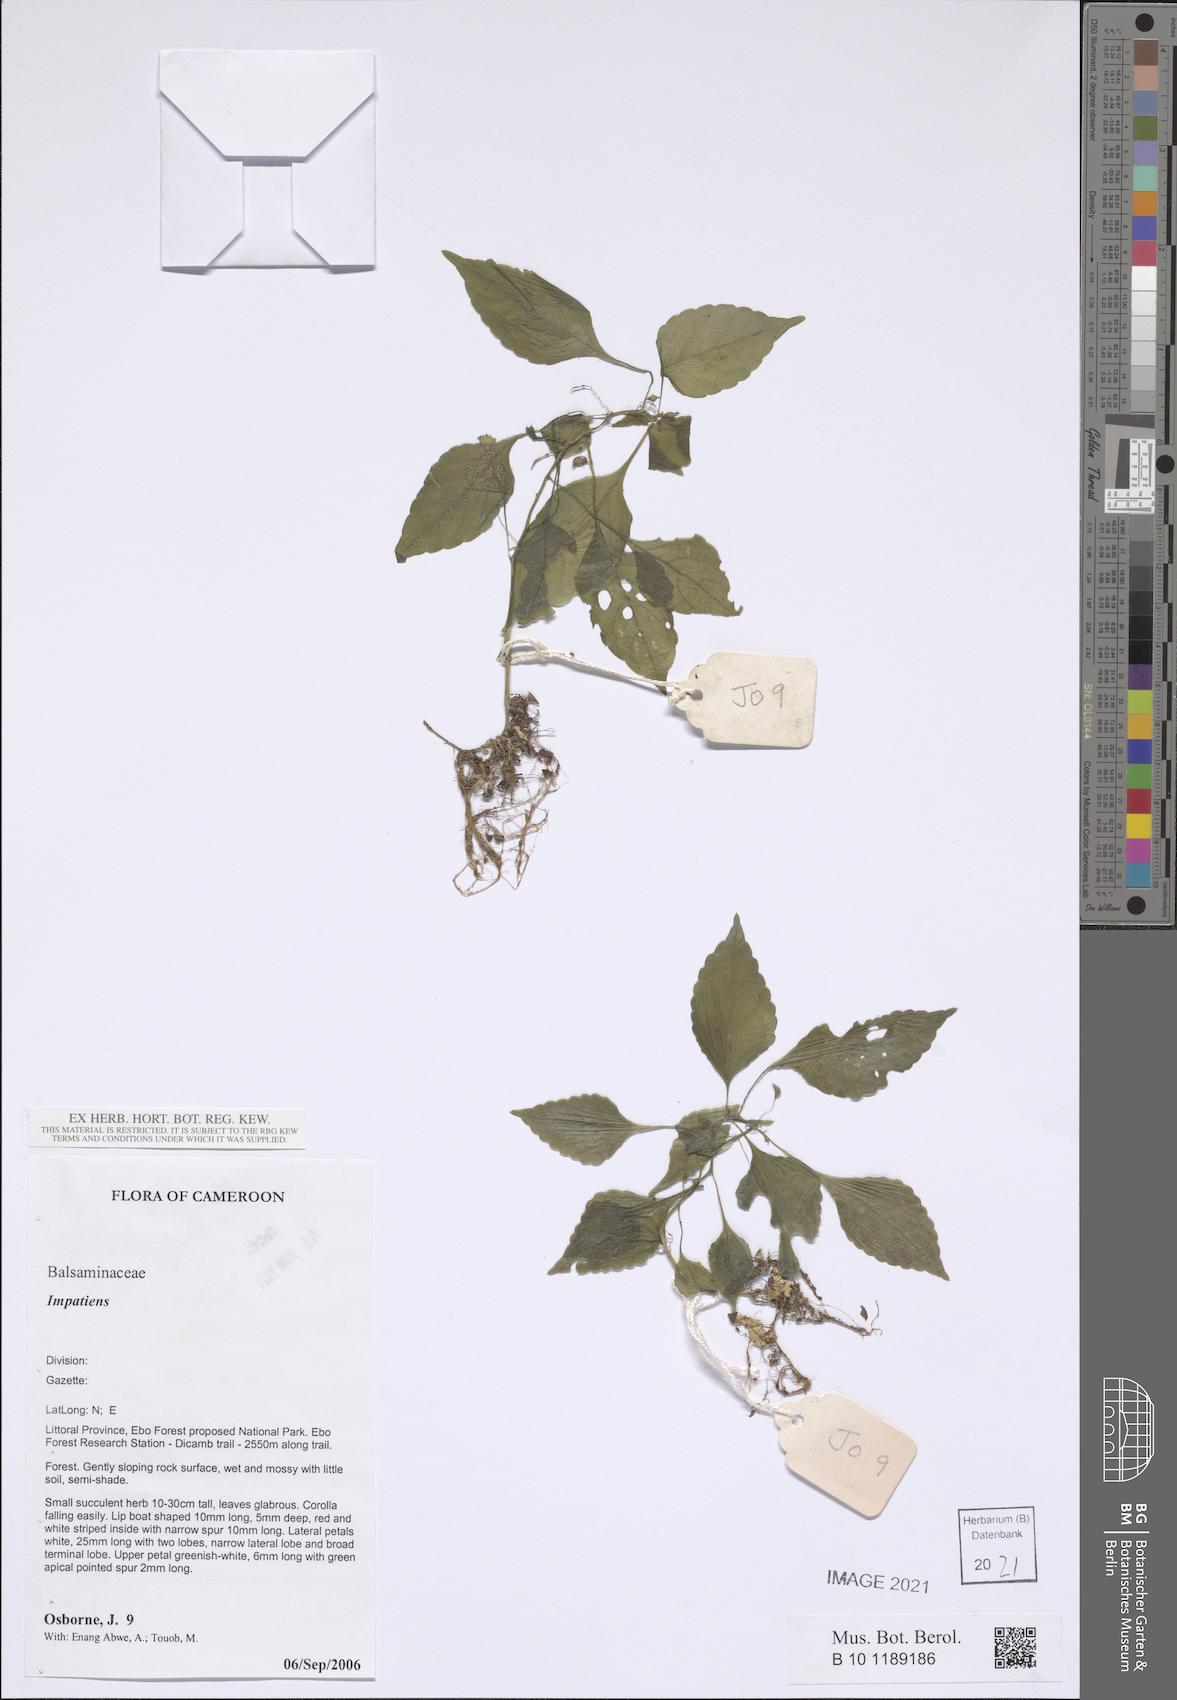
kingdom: Plantae
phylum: Tracheophyta
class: Magnoliopsida
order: Ericales
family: Balsaminaceae
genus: Impatiens
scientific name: Impatiens
